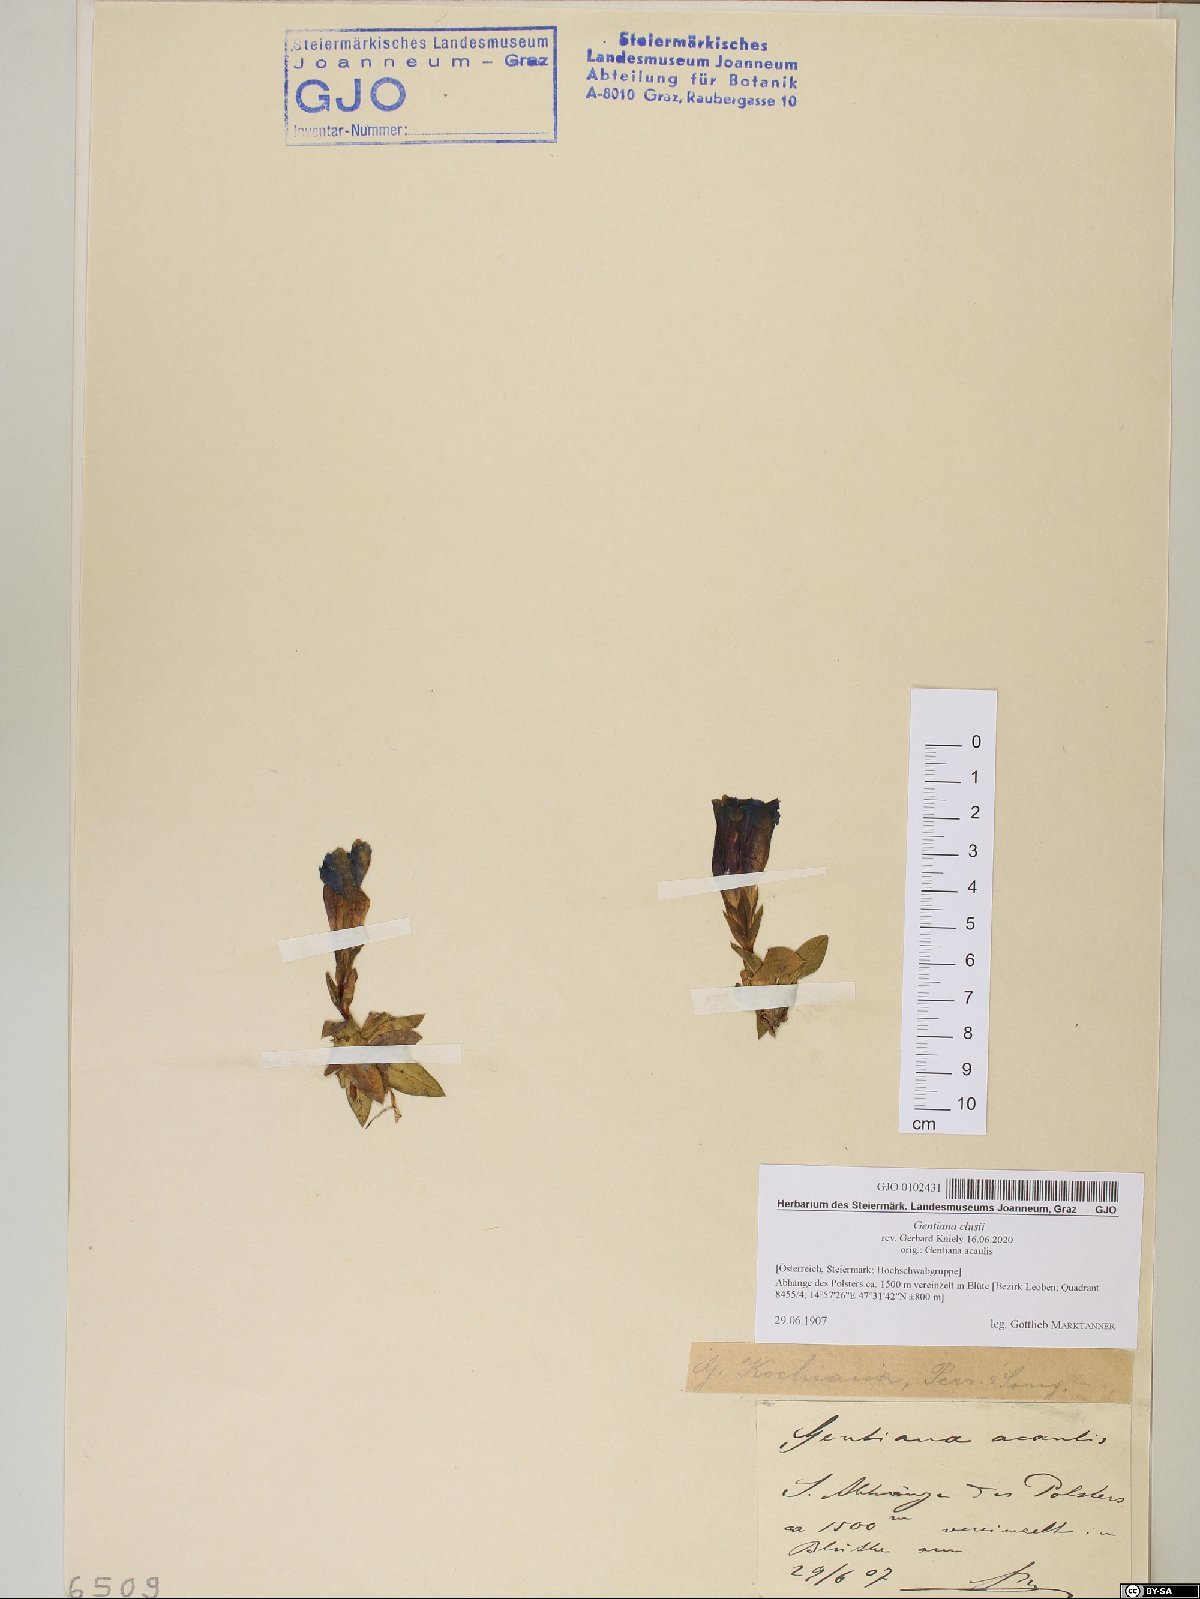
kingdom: Plantae
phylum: Tracheophyta
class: Magnoliopsida
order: Gentianales
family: Gentianaceae
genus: Gentiana
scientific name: Gentiana clusii
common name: Trumpet gentian
